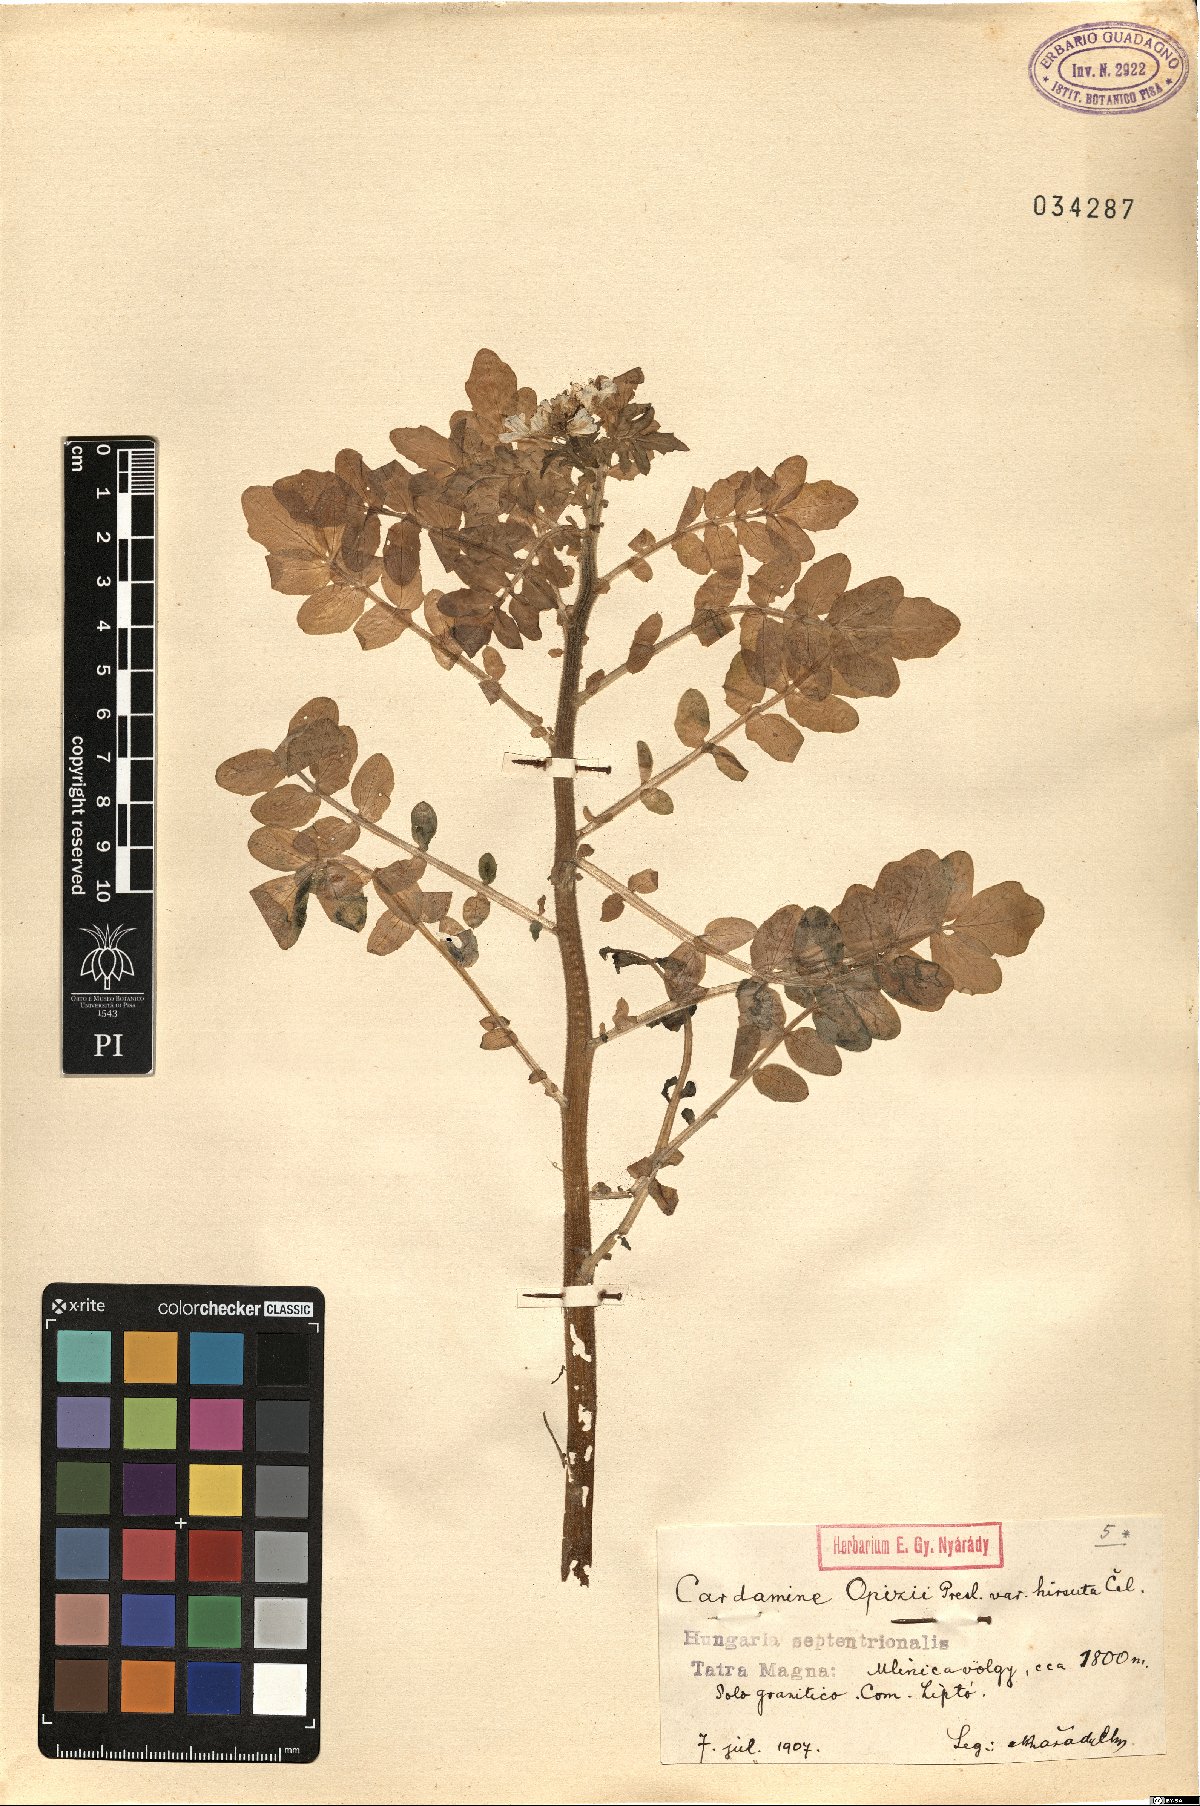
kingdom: Plantae
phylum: Tracheophyta
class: Magnoliopsida
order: Brassicales
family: Brassicaceae
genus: Cardamine
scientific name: Cardamine amara
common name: Large bitter-cress
